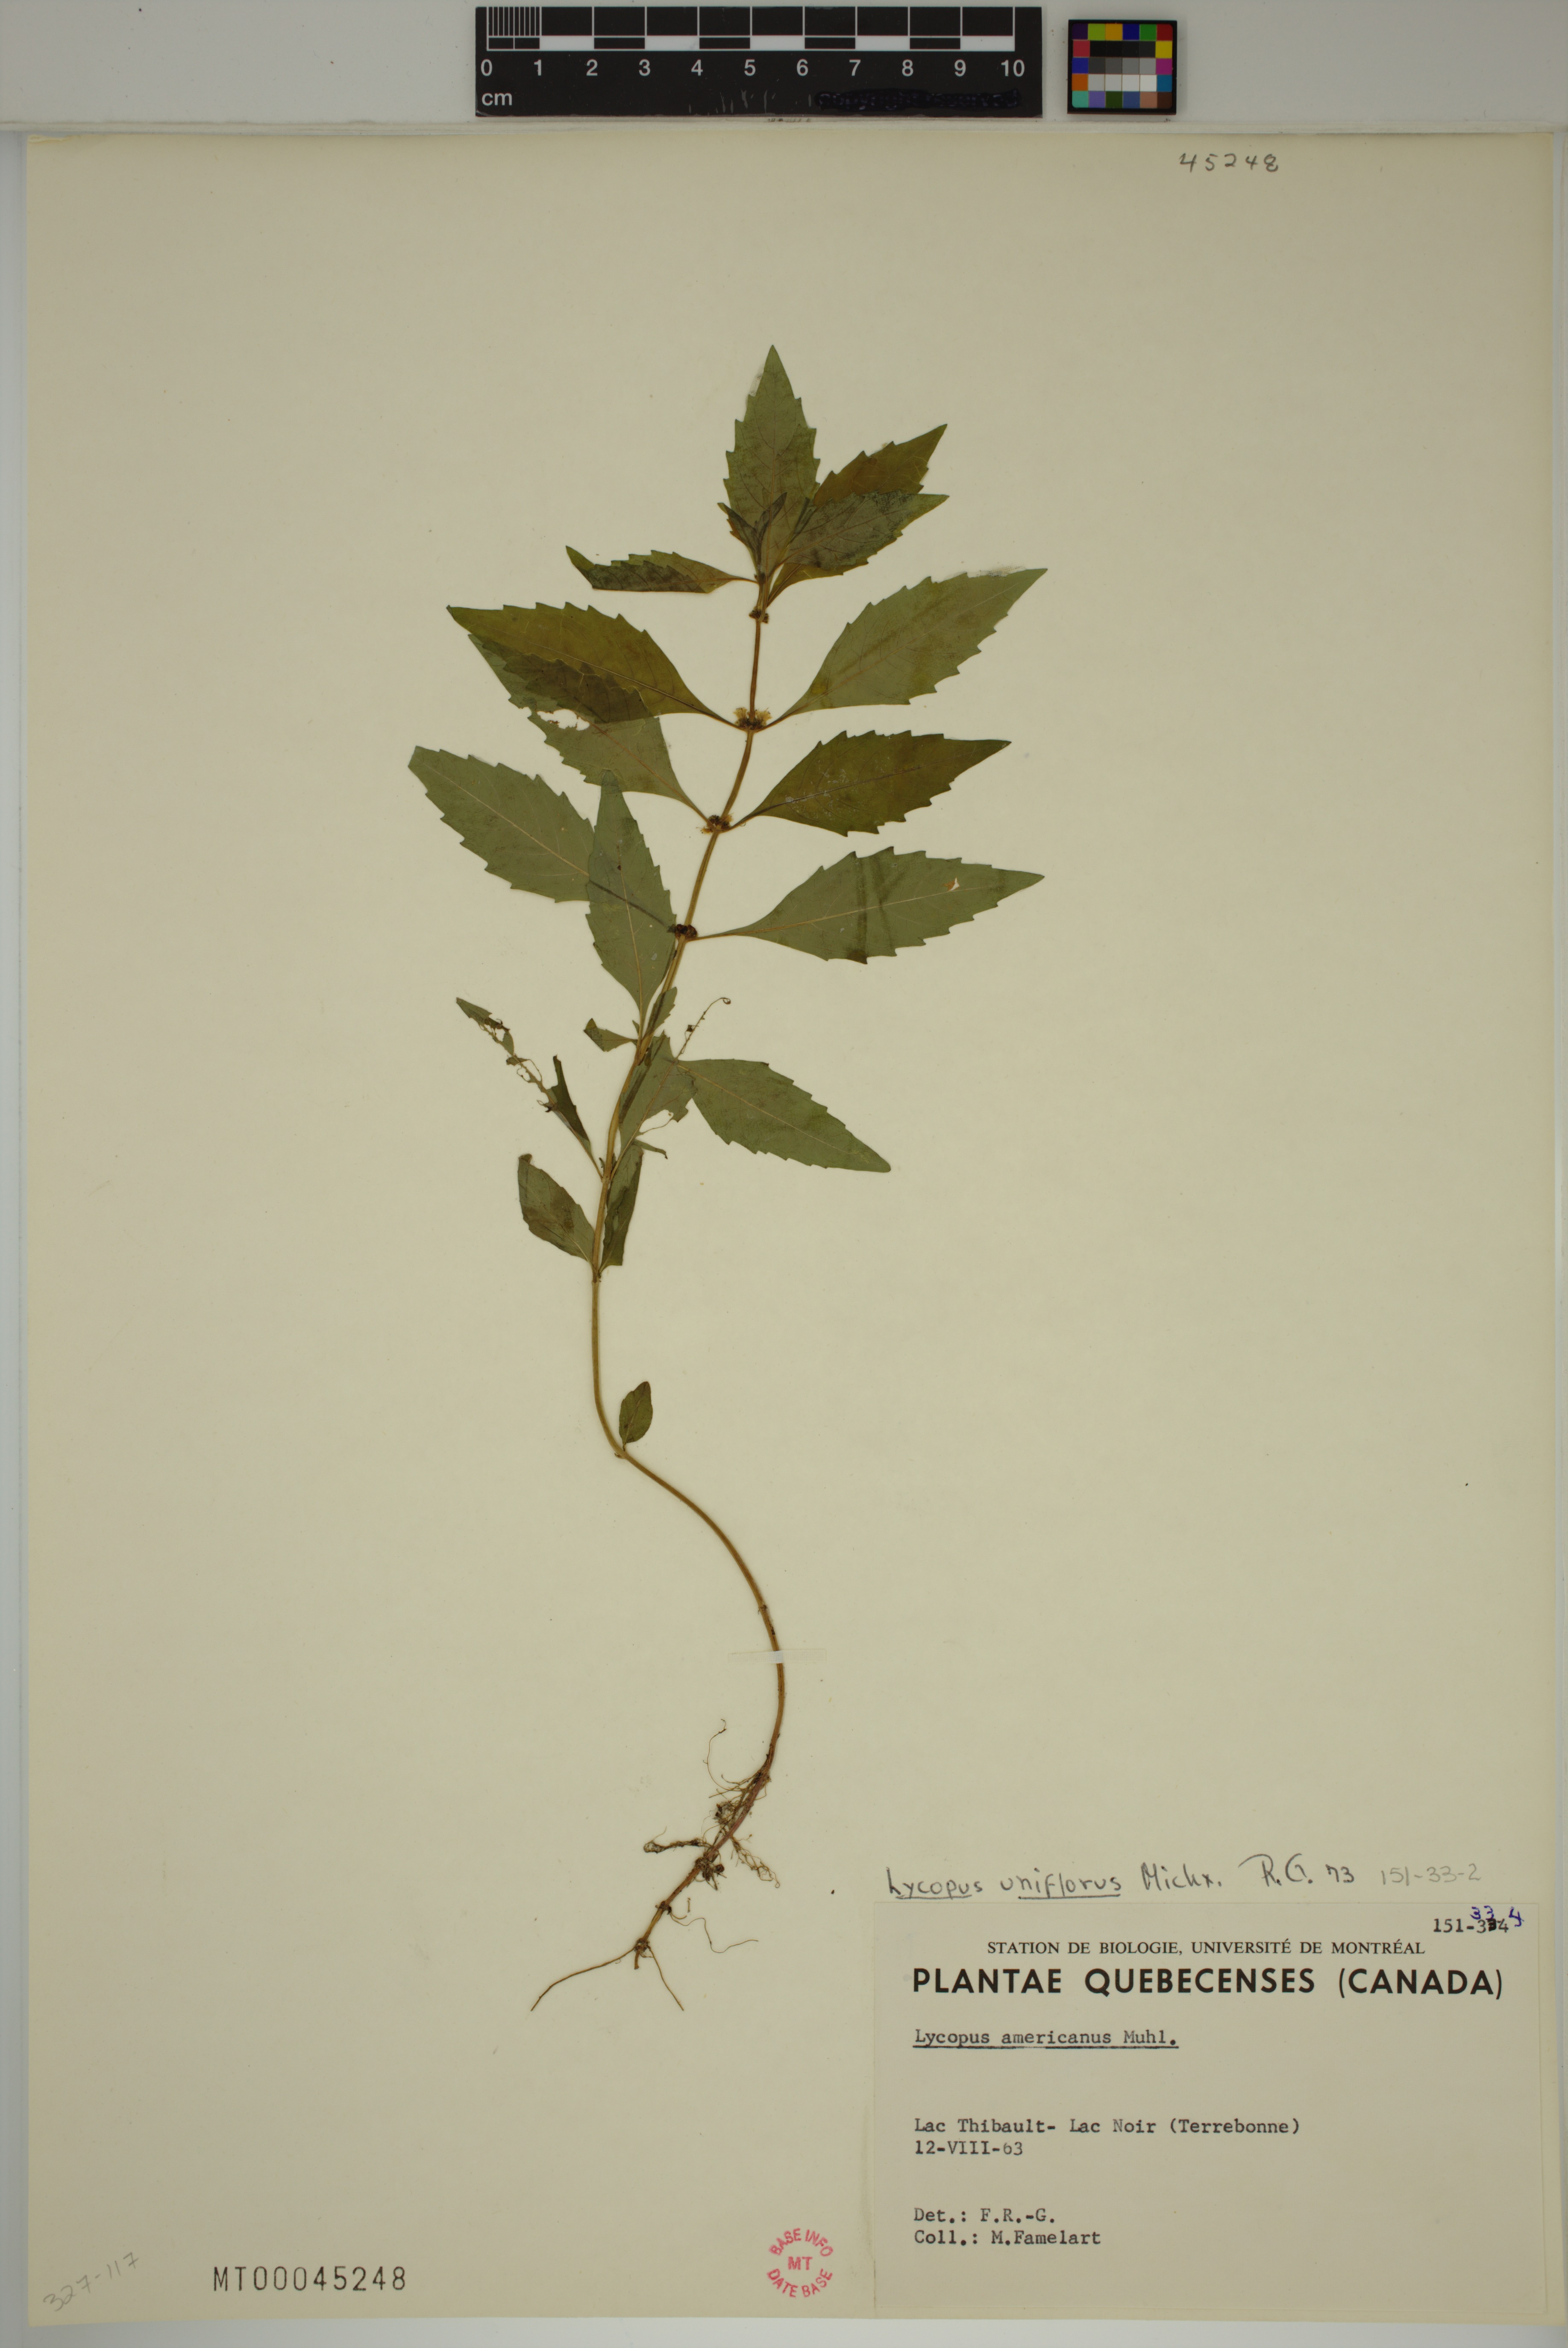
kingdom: Plantae
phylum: Tracheophyta
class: Magnoliopsida
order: Lamiales
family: Lamiaceae
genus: Lycopus
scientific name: Lycopus uniflorus
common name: Northern bugleweed
